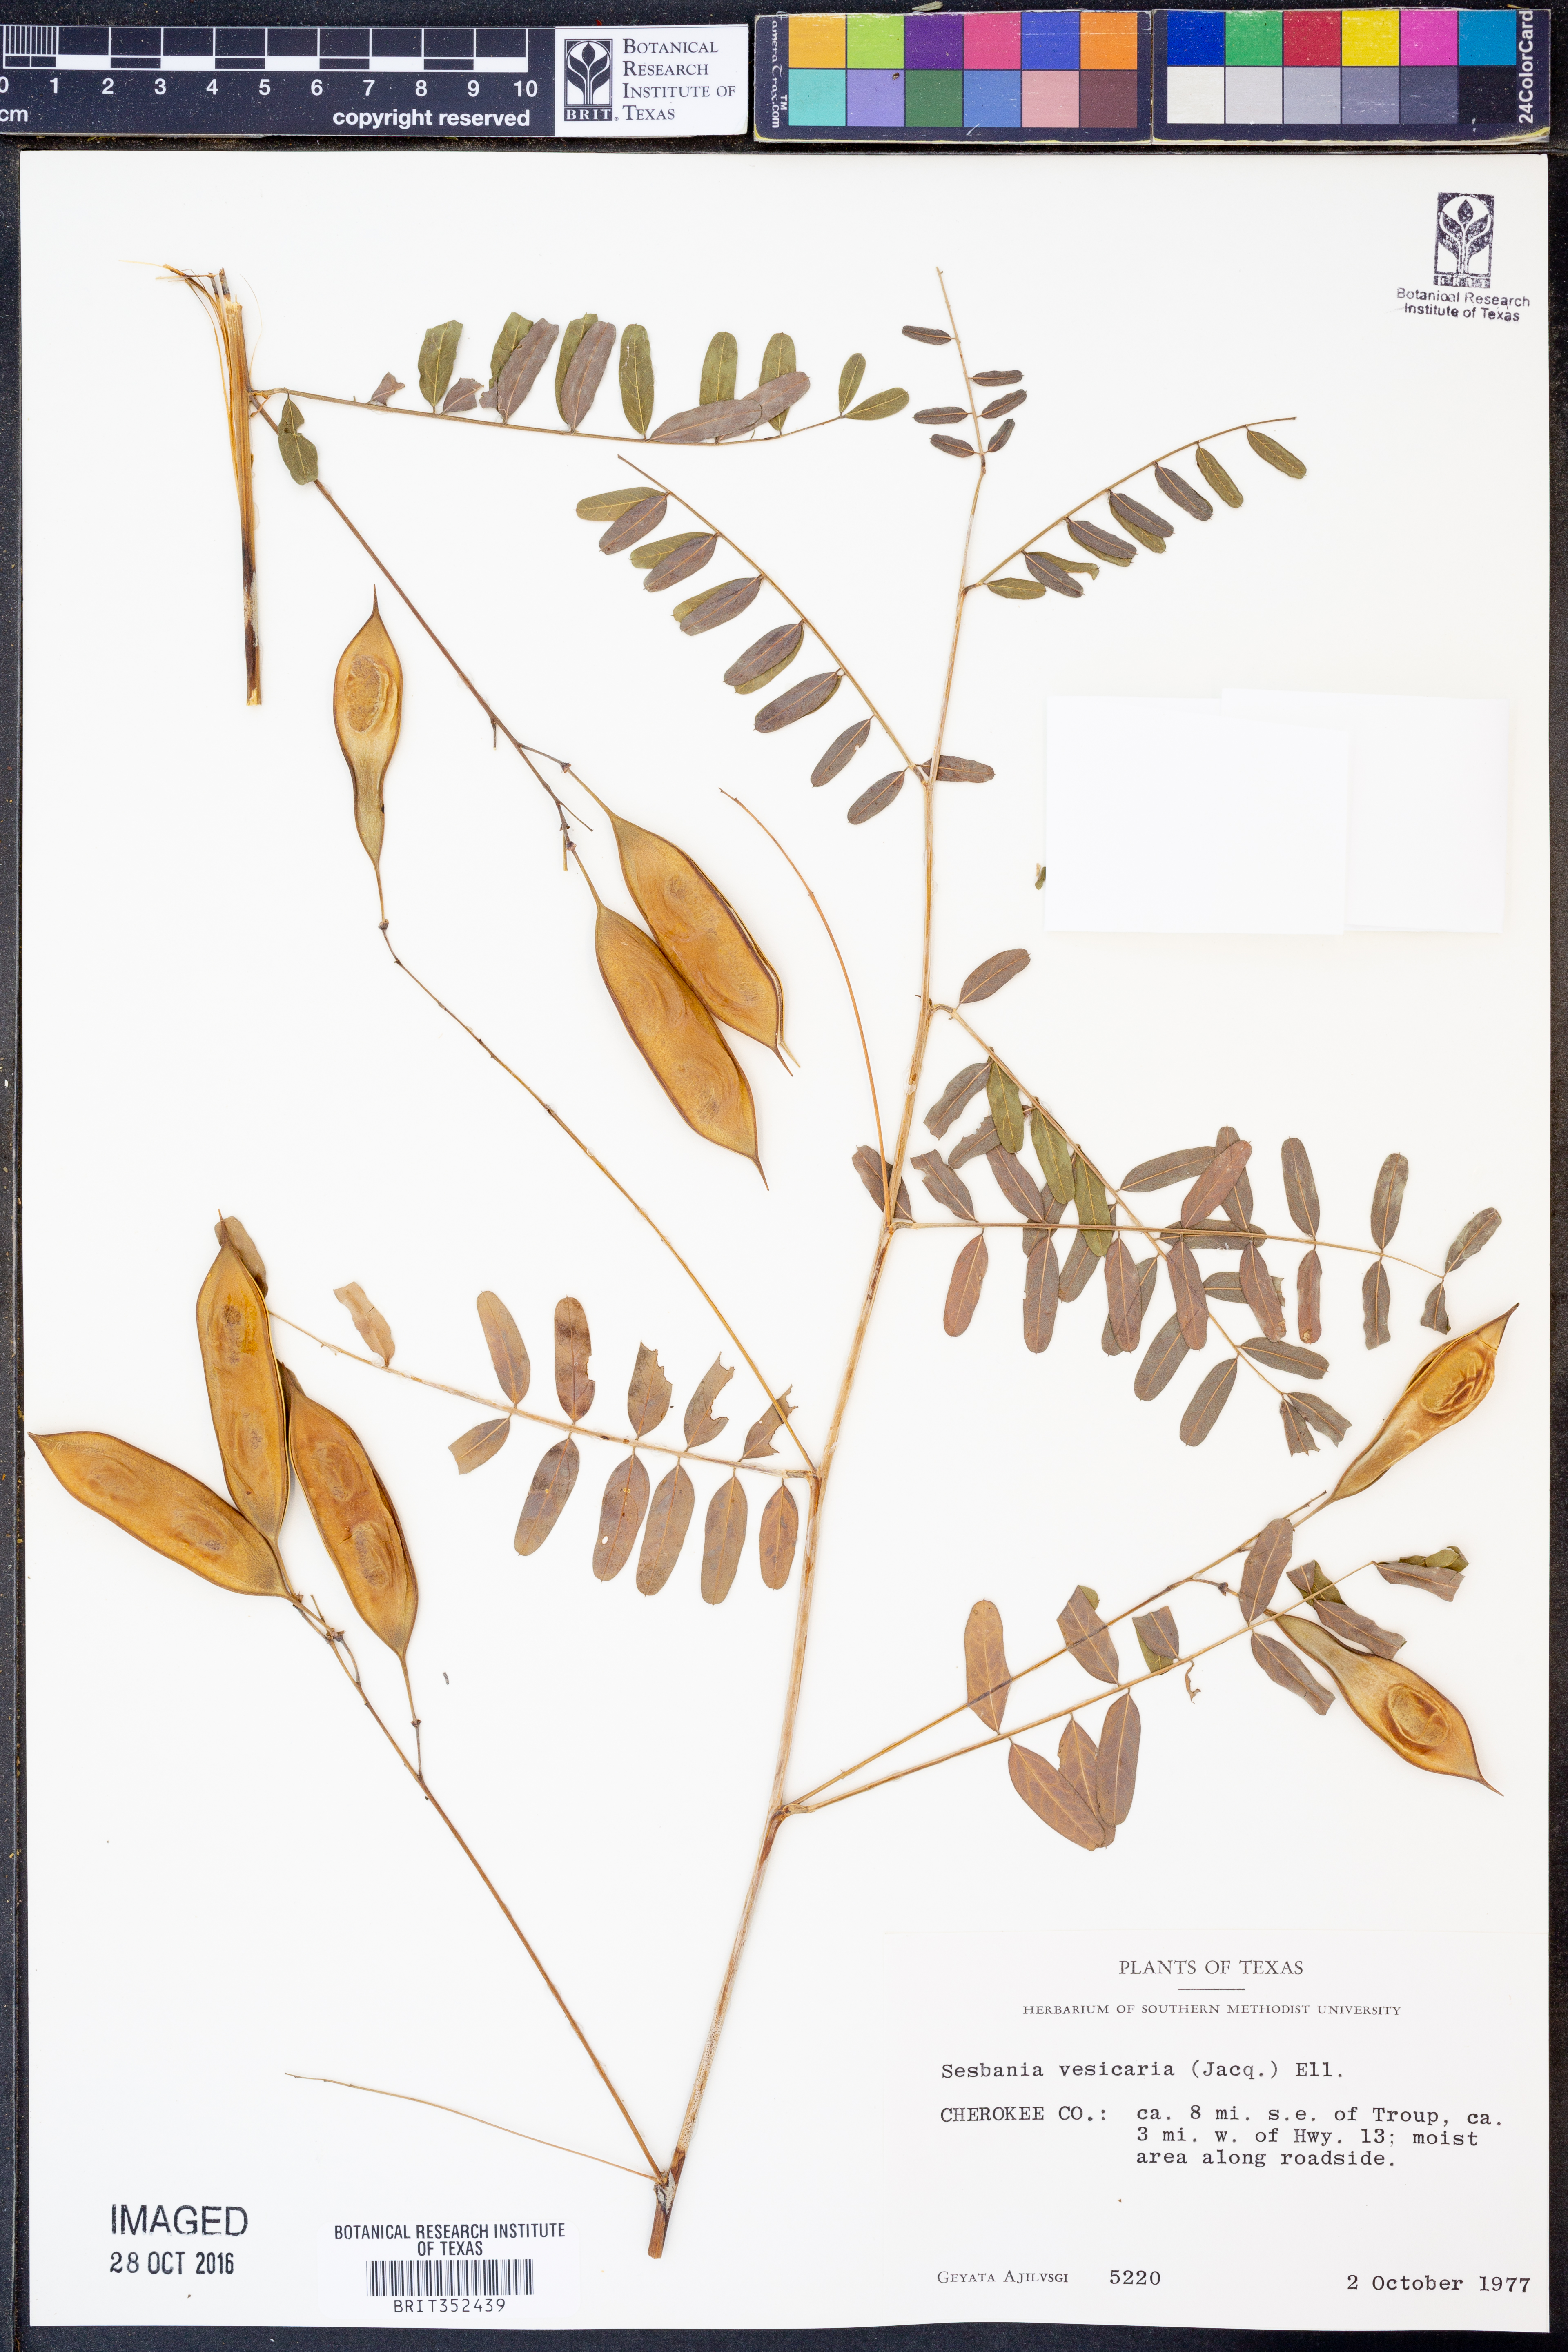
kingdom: Plantae
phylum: Tracheophyta
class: Magnoliopsida
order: Fabales
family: Fabaceae
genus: Sesbania
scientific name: Sesbania vesicaria
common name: Bagpod
